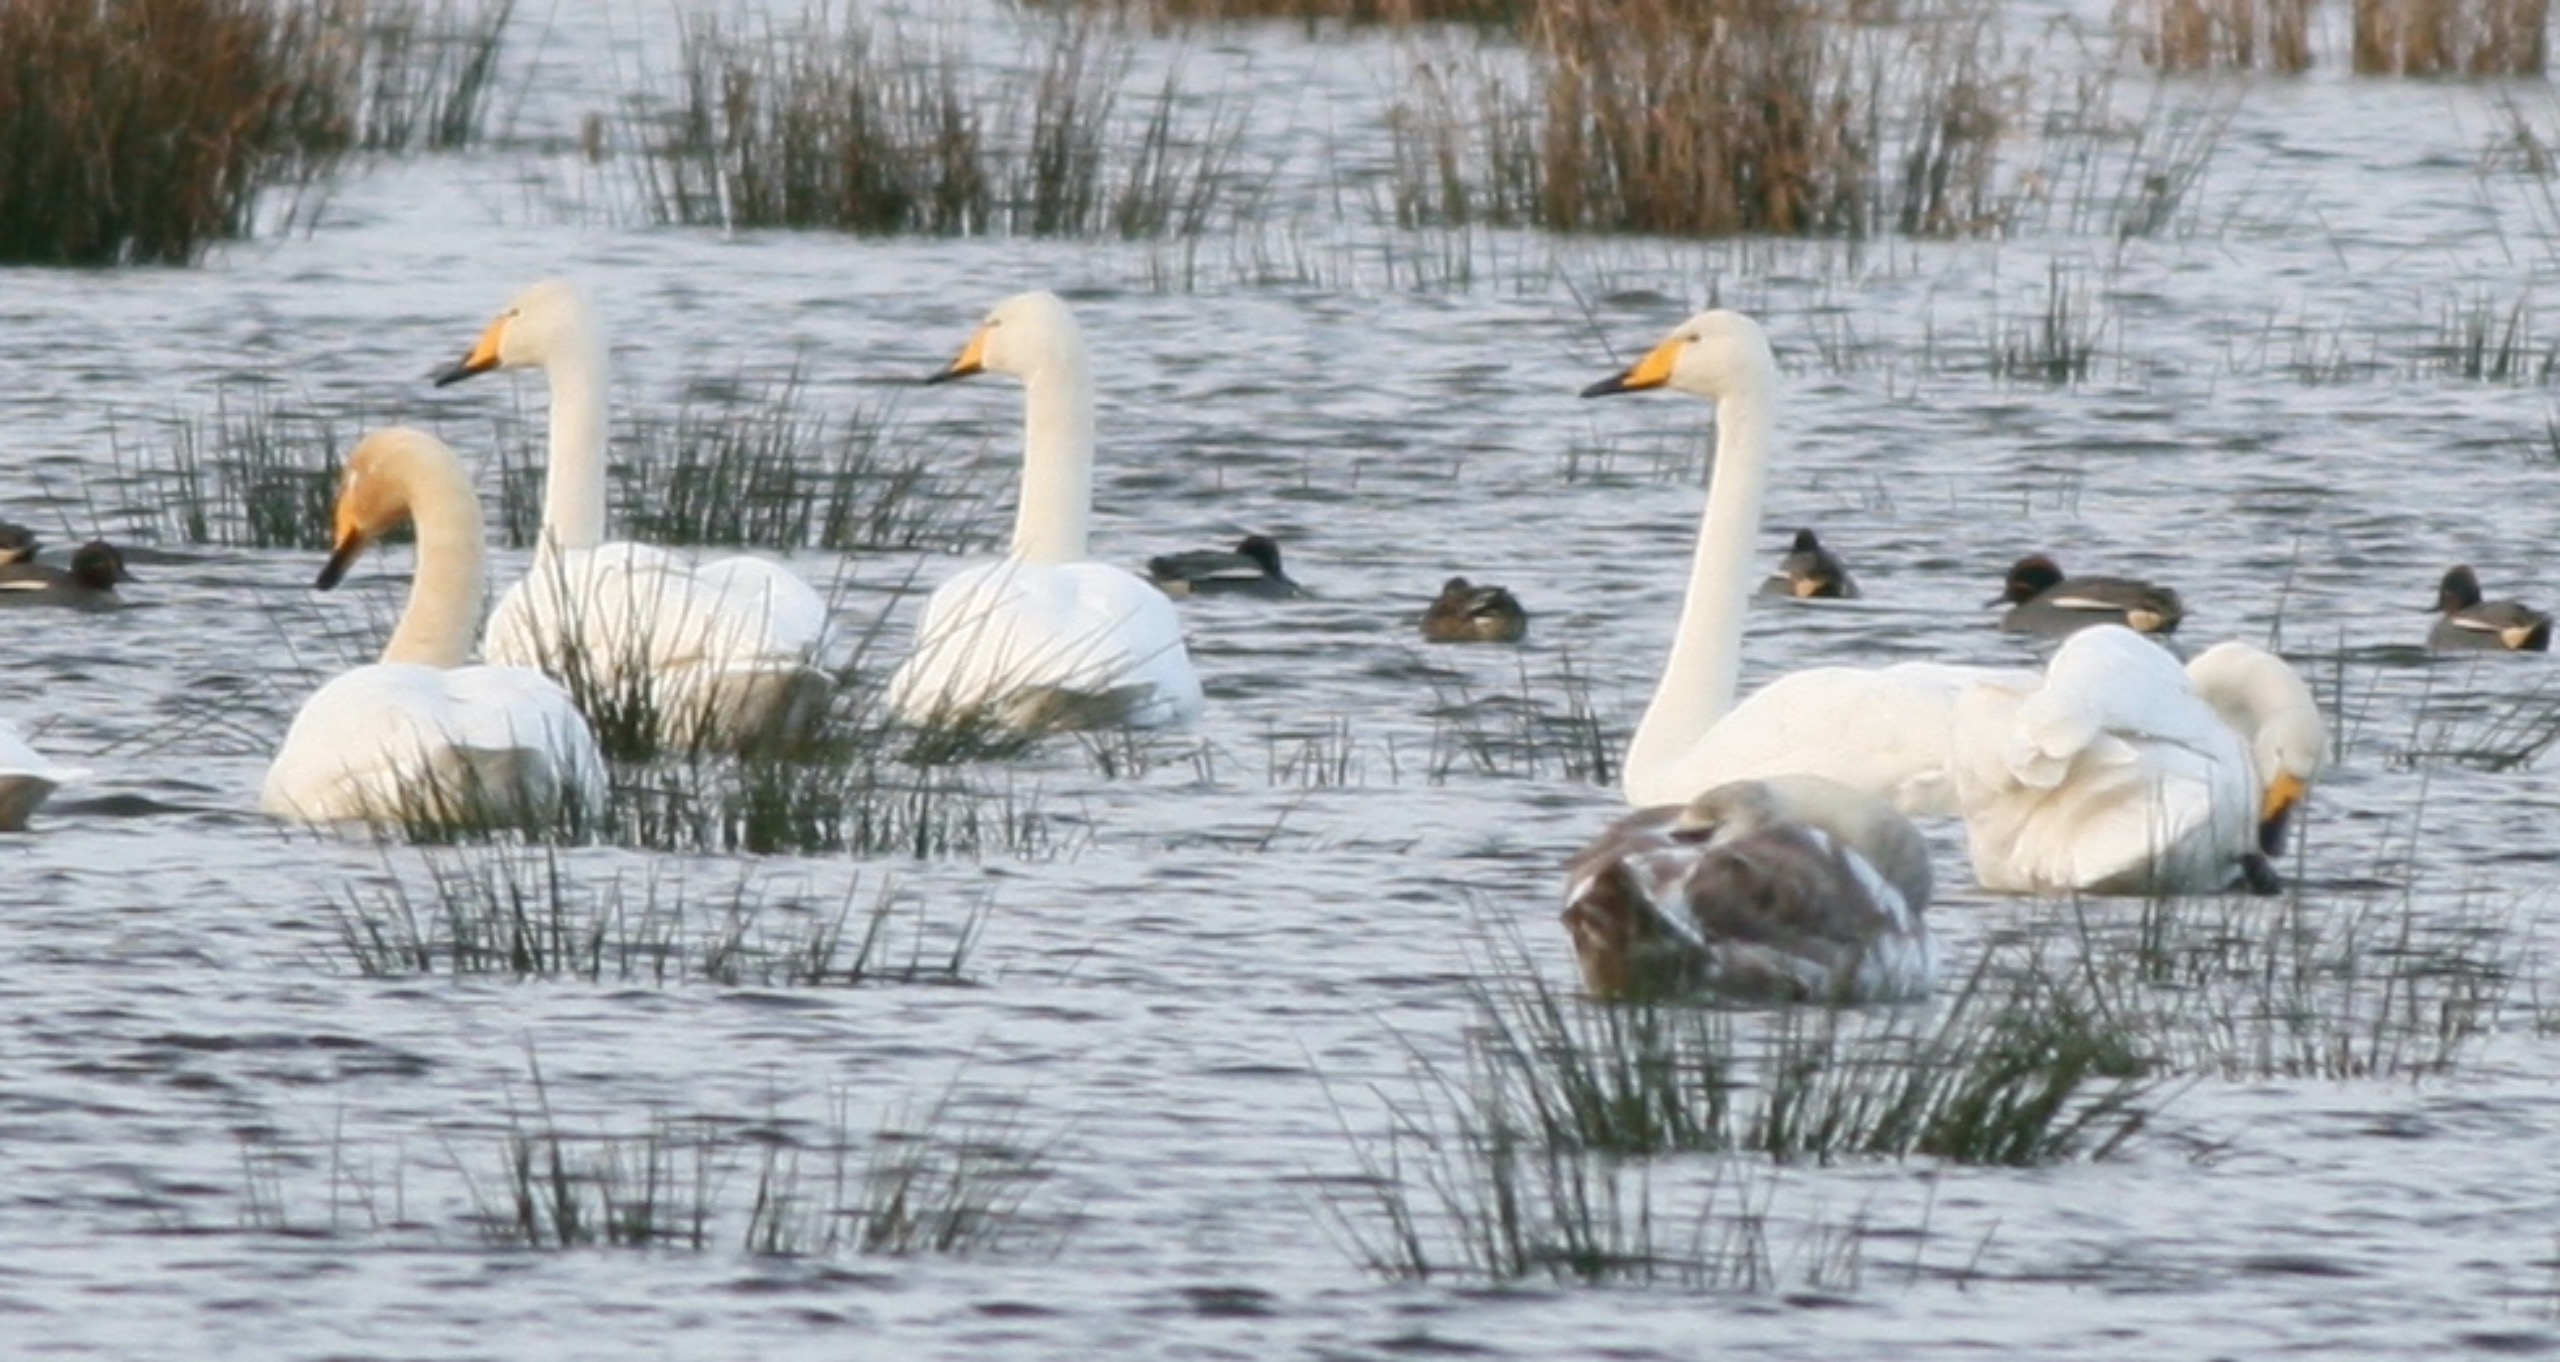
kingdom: Animalia
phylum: Chordata
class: Aves
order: Anseriformes
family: Anatidae
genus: Cygnus
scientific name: Cygnus cygnus
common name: Sangsvane
